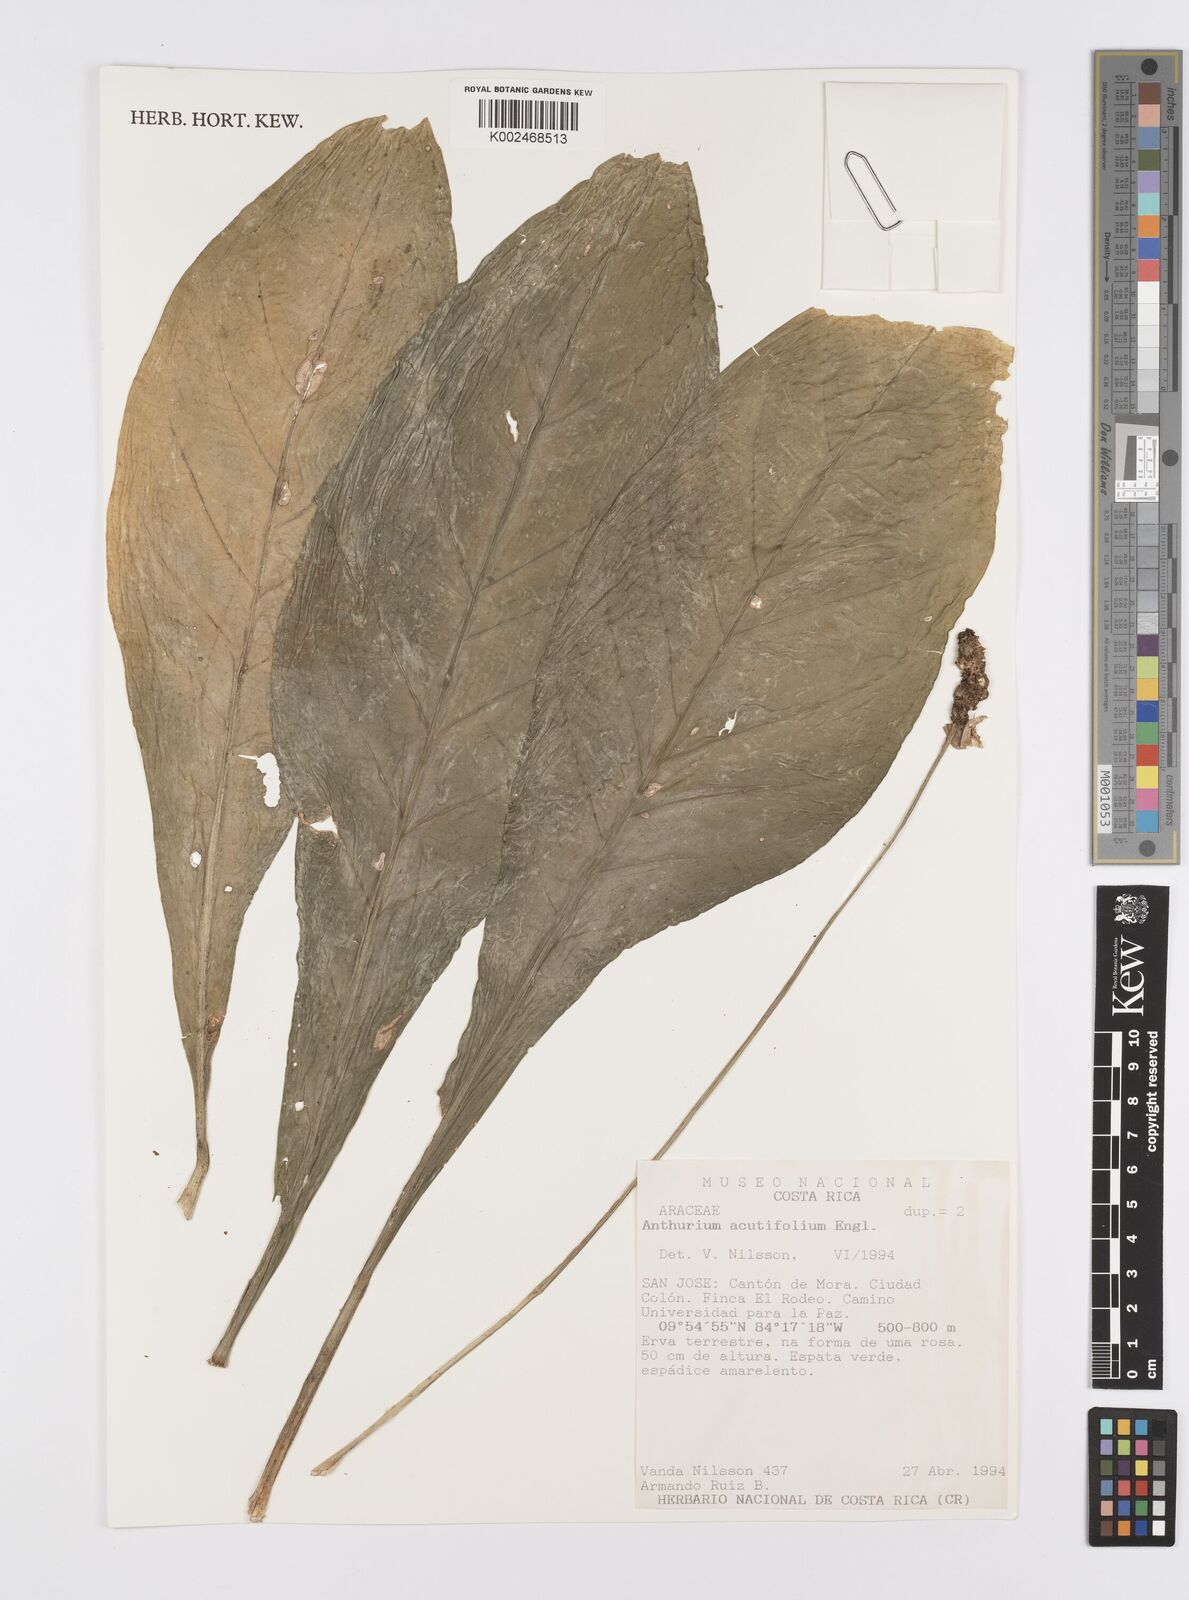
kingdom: Plantae
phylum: Tracheophyta
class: Liliopsida
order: Alismatales
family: Araceae
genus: Anthurium
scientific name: Anthurium acutifolium
